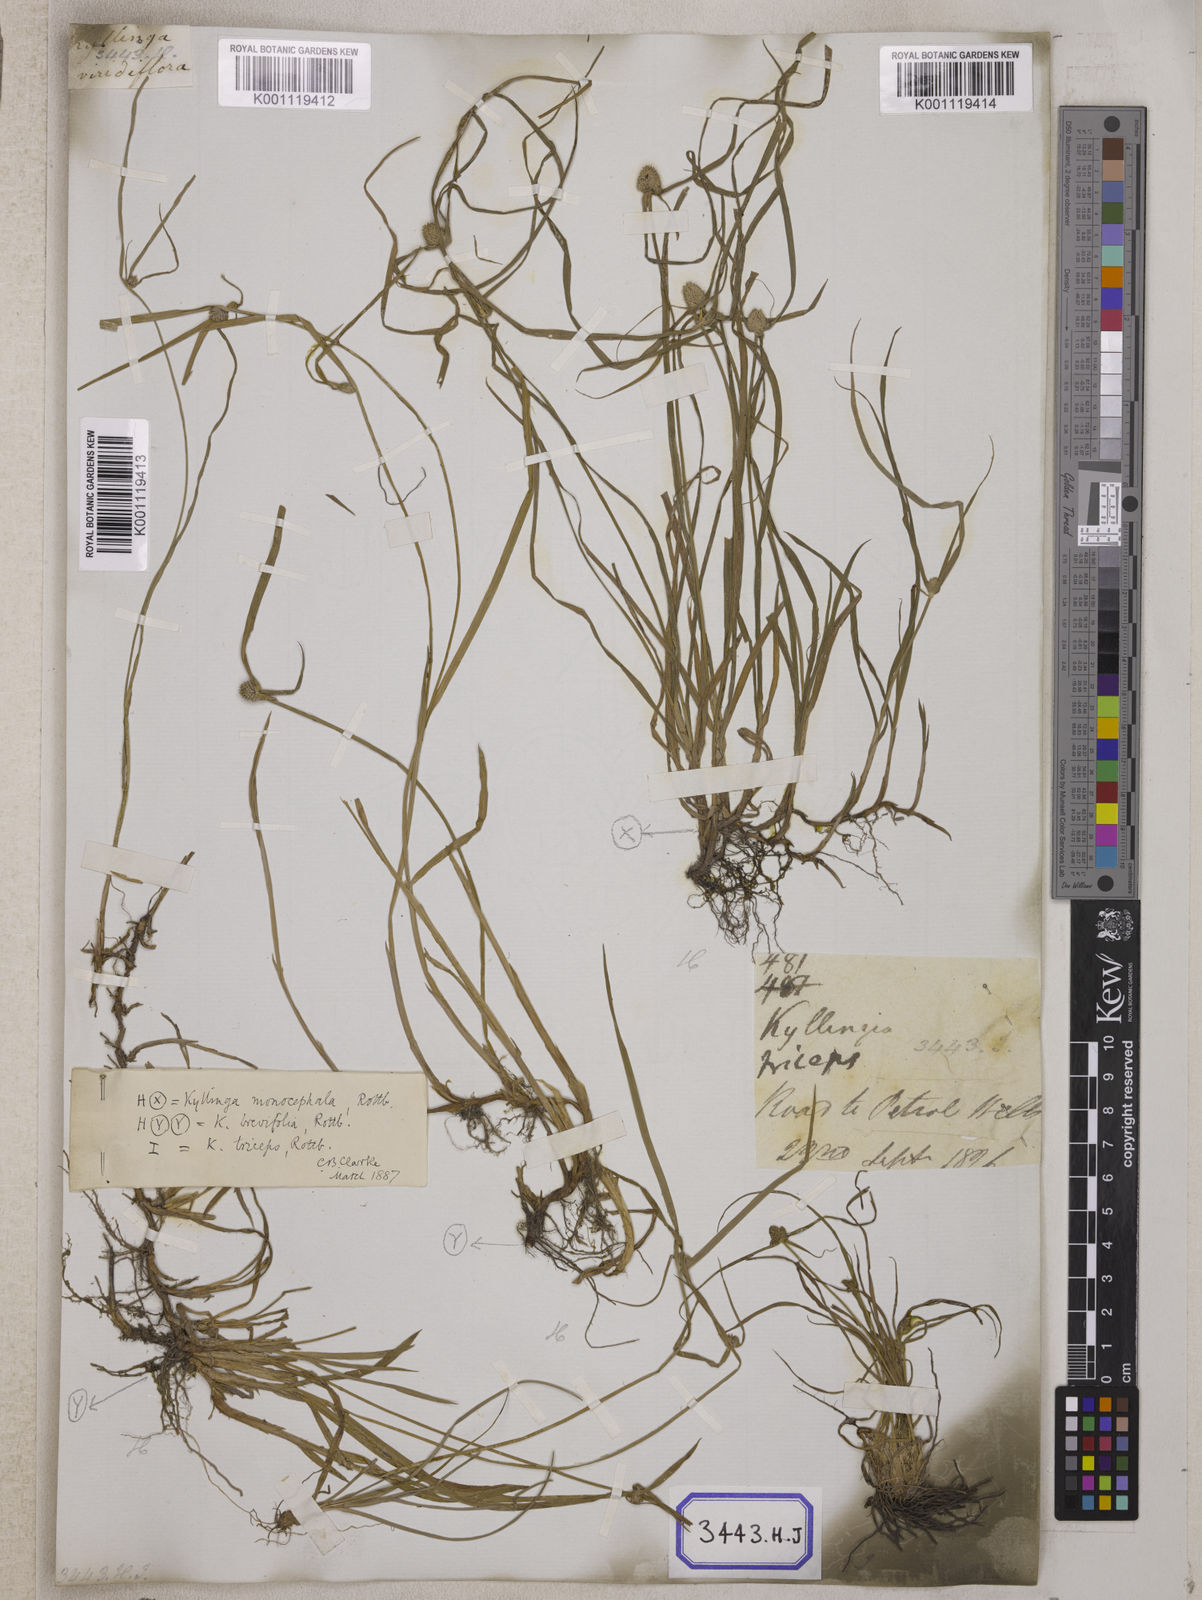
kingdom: Plantae
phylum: Tracheophyta
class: Liliopsida
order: Poales
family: Cyperaceae
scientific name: Cyperaceae
